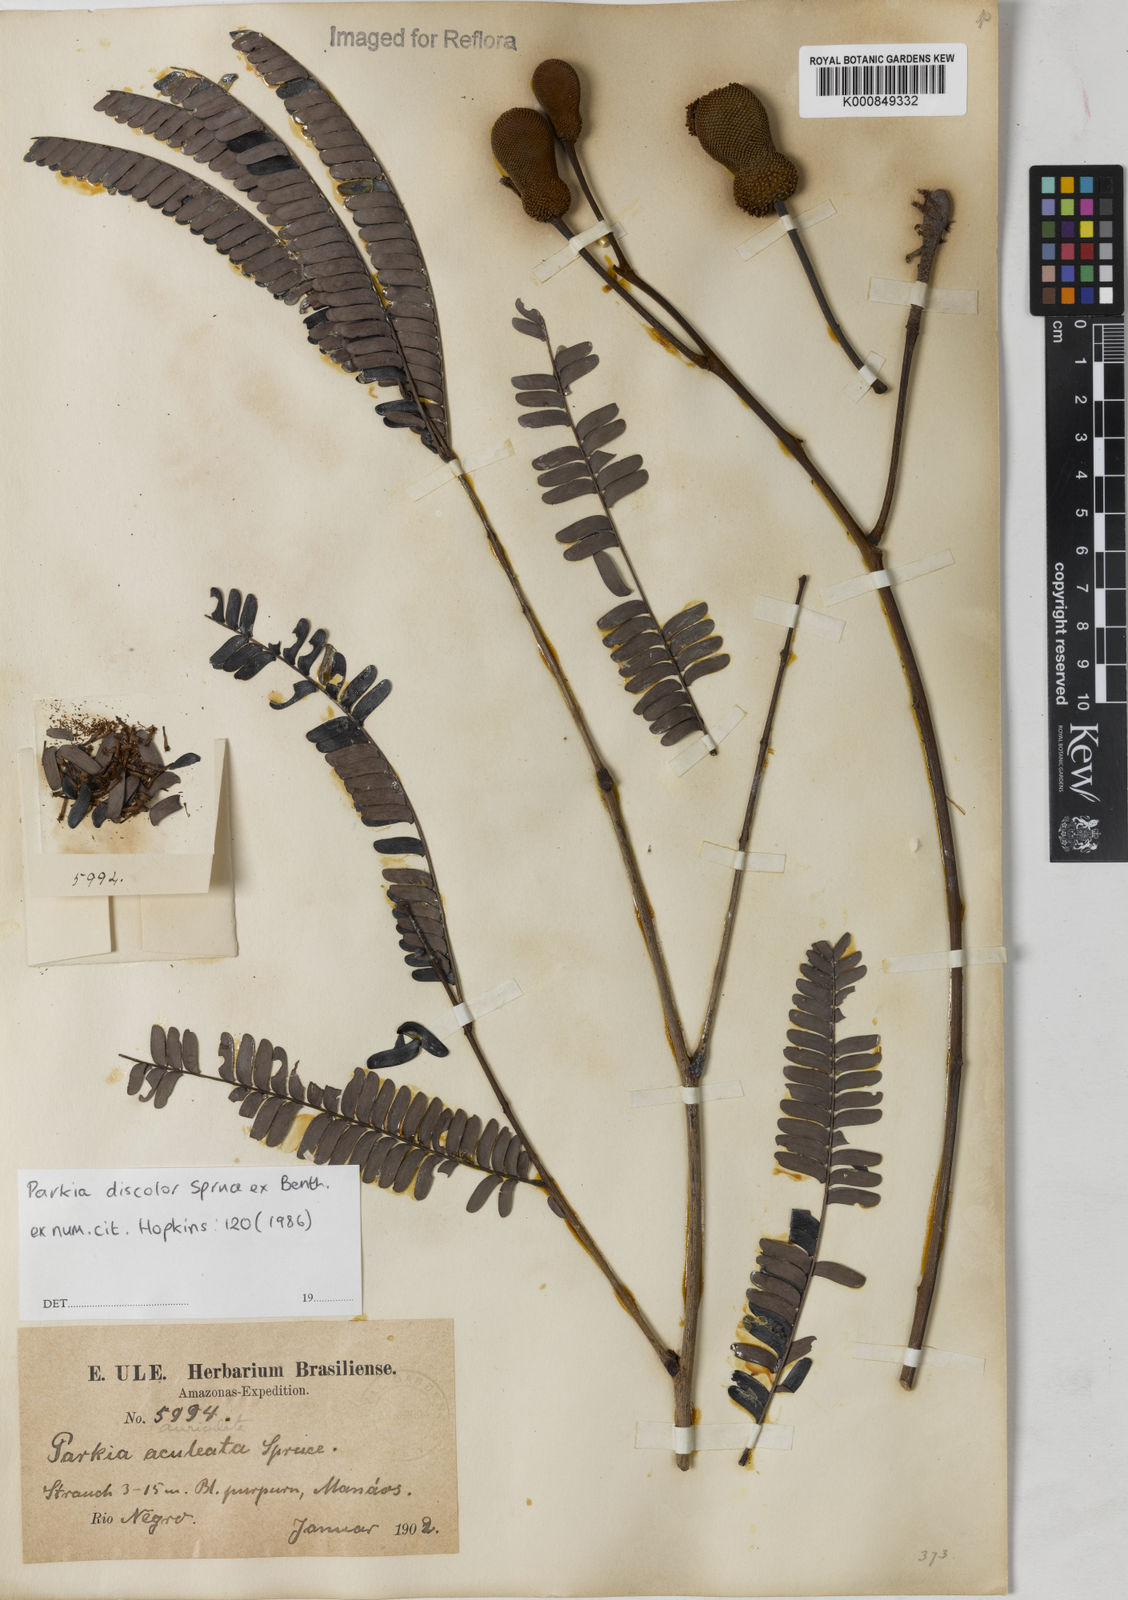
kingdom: Plantae
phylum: Tracheophyta
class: Magnoliopsida
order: Fabales
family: Fabaceae
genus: Parkia
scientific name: Parkia discolor
